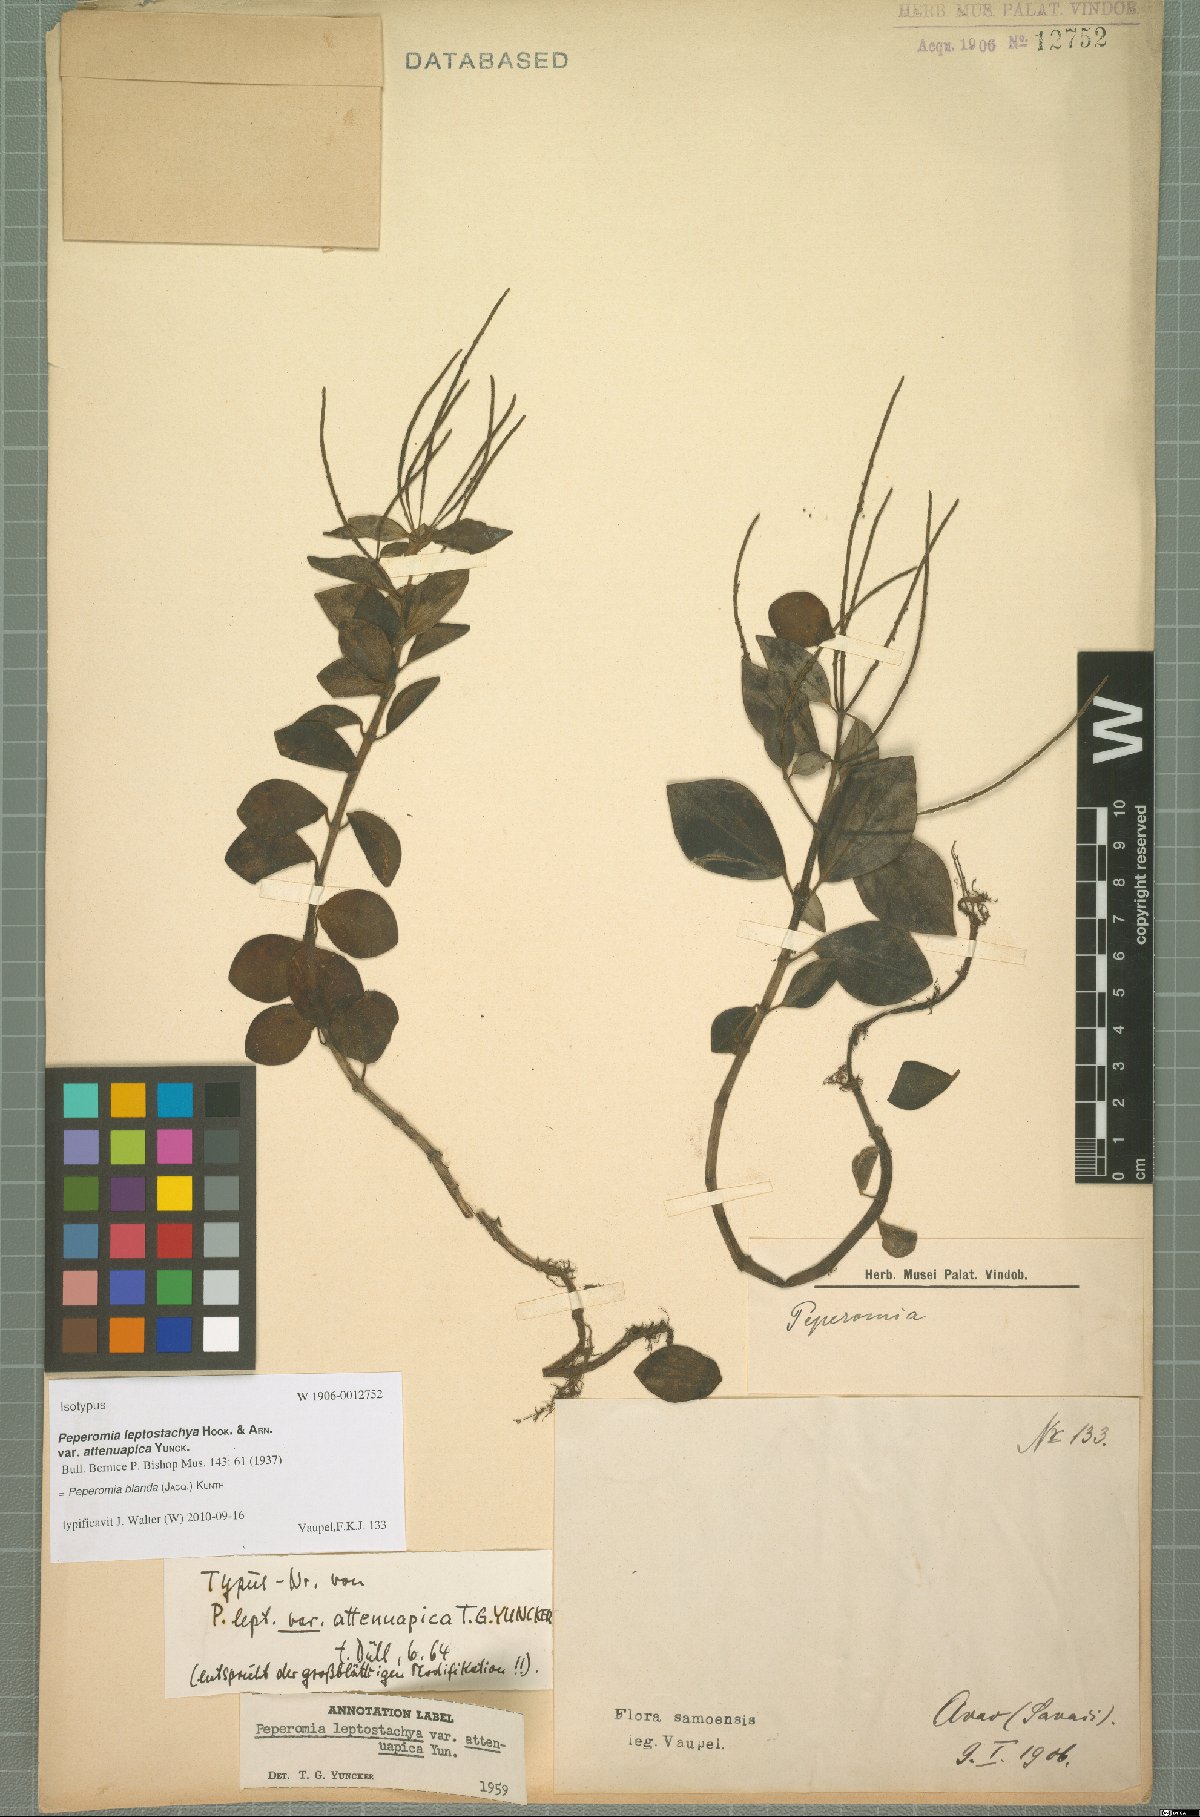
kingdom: Plantae
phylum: Tracheophyta
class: Magnoliopsida
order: Piperales
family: Piperaceae
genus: Peperomia
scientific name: Peperomia blanda
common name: Arid-land peperomia
